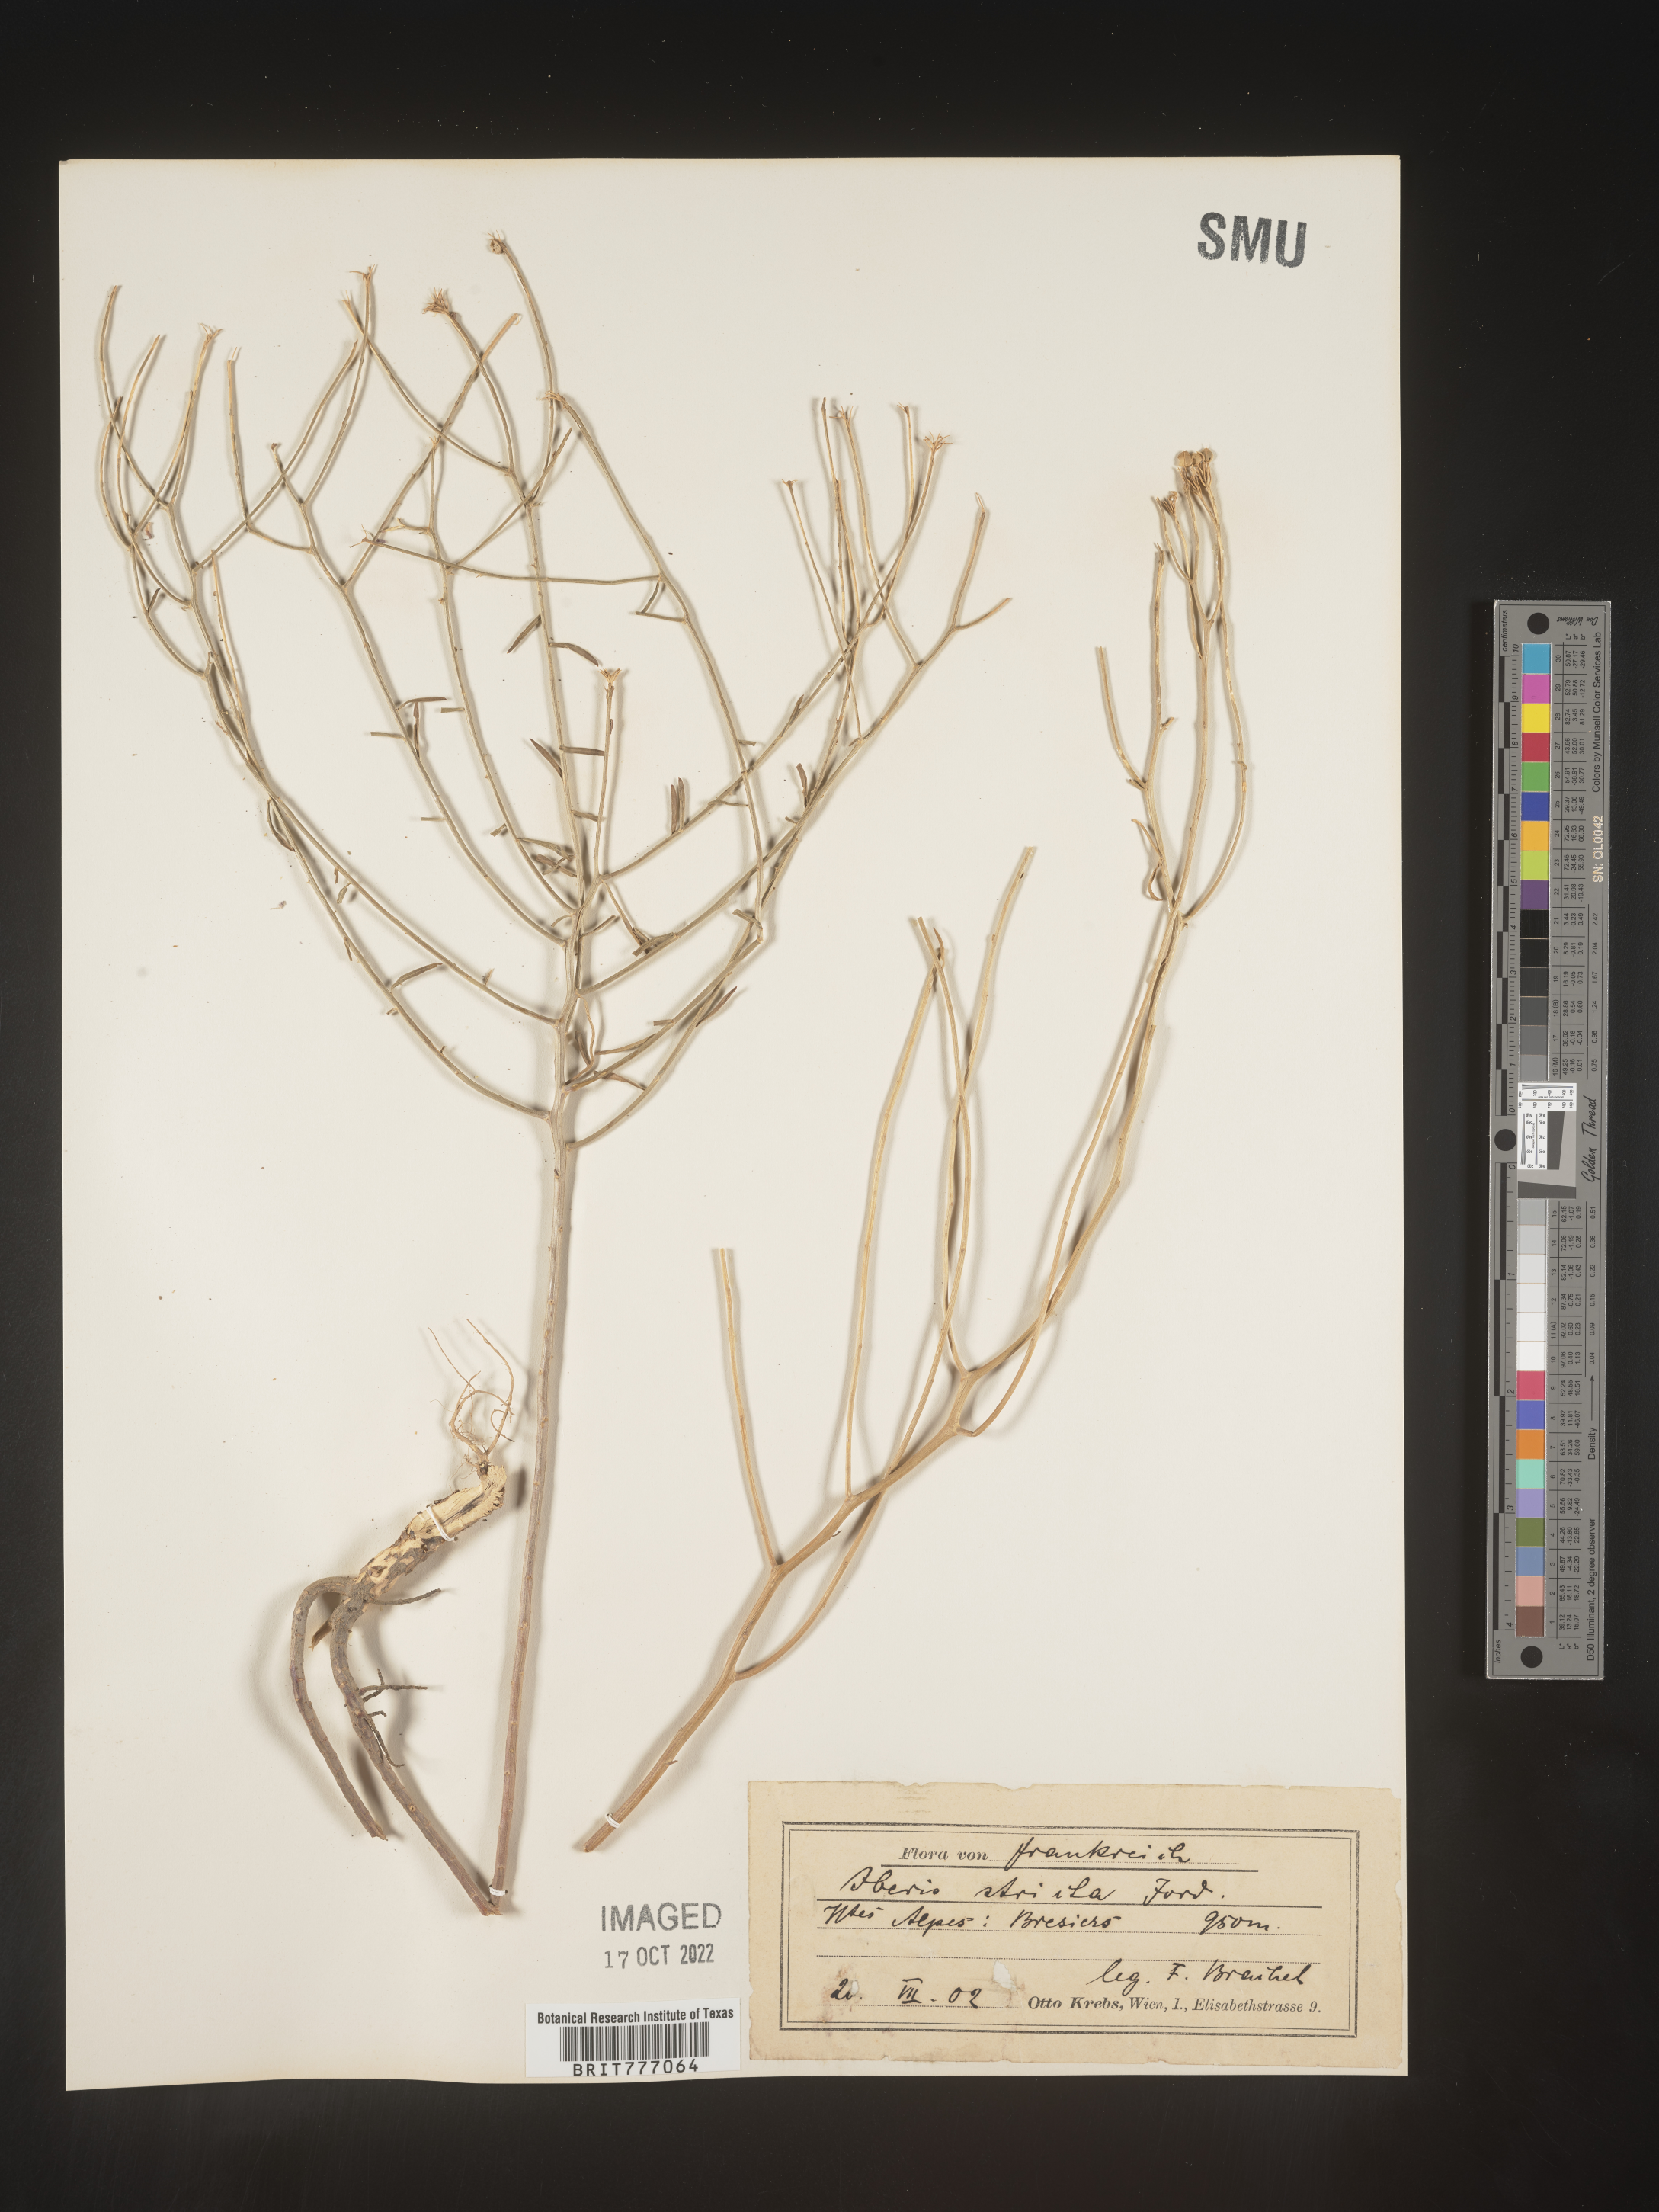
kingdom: Plantae
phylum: Tracheophyta
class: Magnoliopsida
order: Brassicales
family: Brassicaceae
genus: Iberis
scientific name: Iberis
